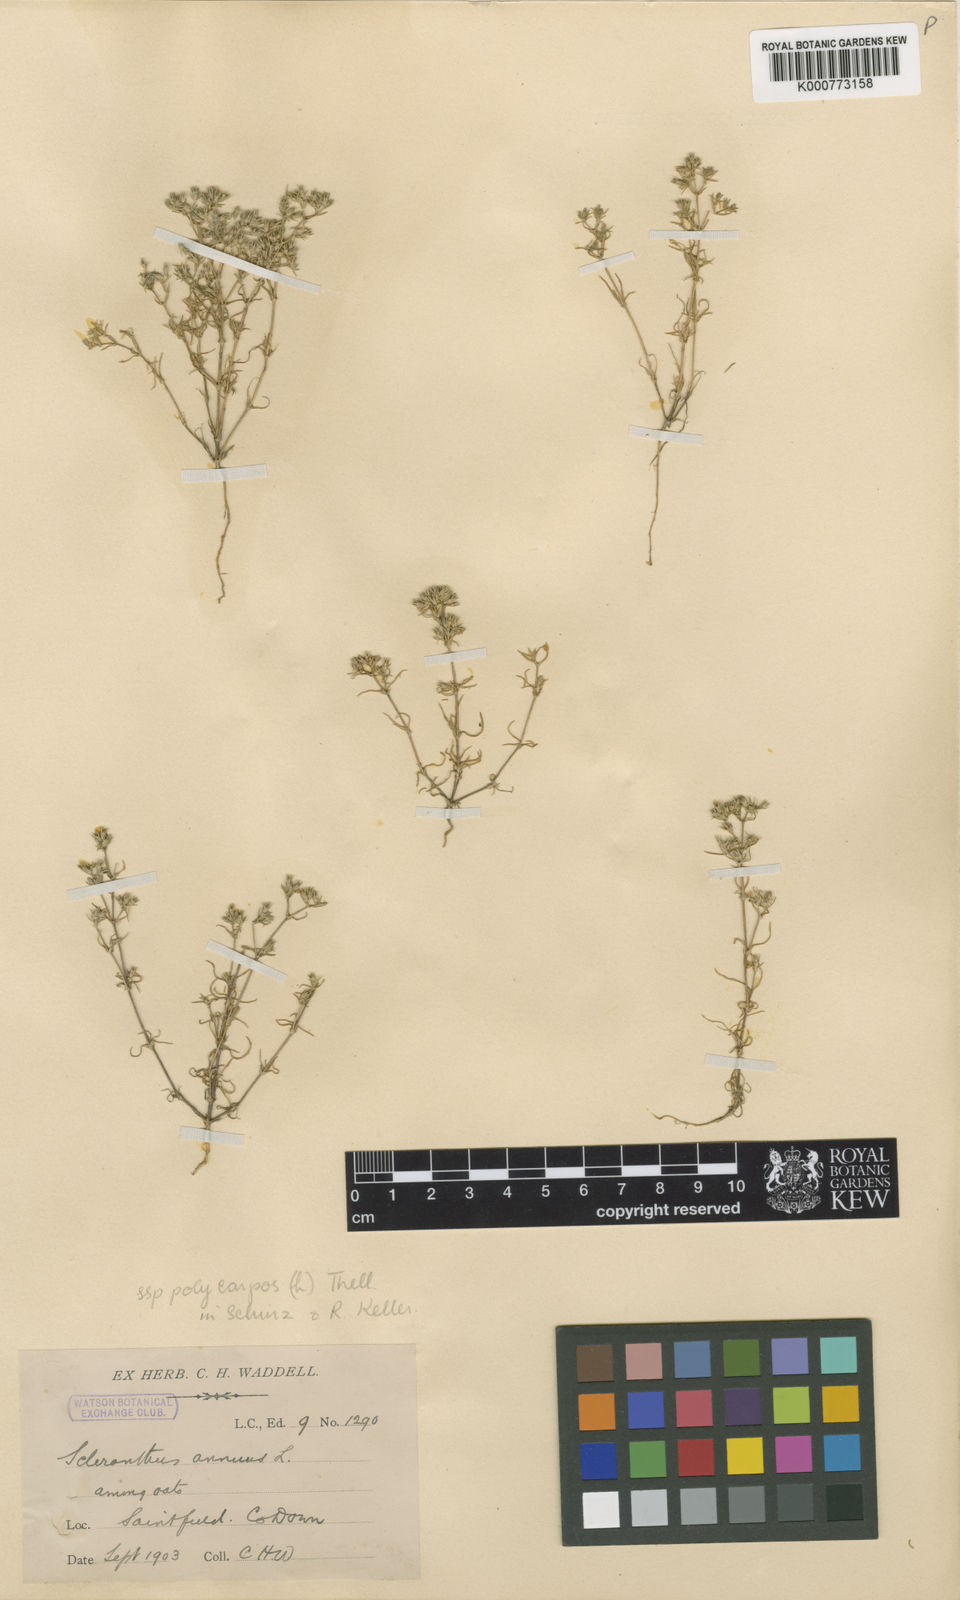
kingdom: Plantae
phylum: Tracheophyta
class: Magnoliopsida
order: Caryophyllales
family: Caryophyllaceae
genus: Scleranthus
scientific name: Scleranthus annuus
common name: Annual knawel
